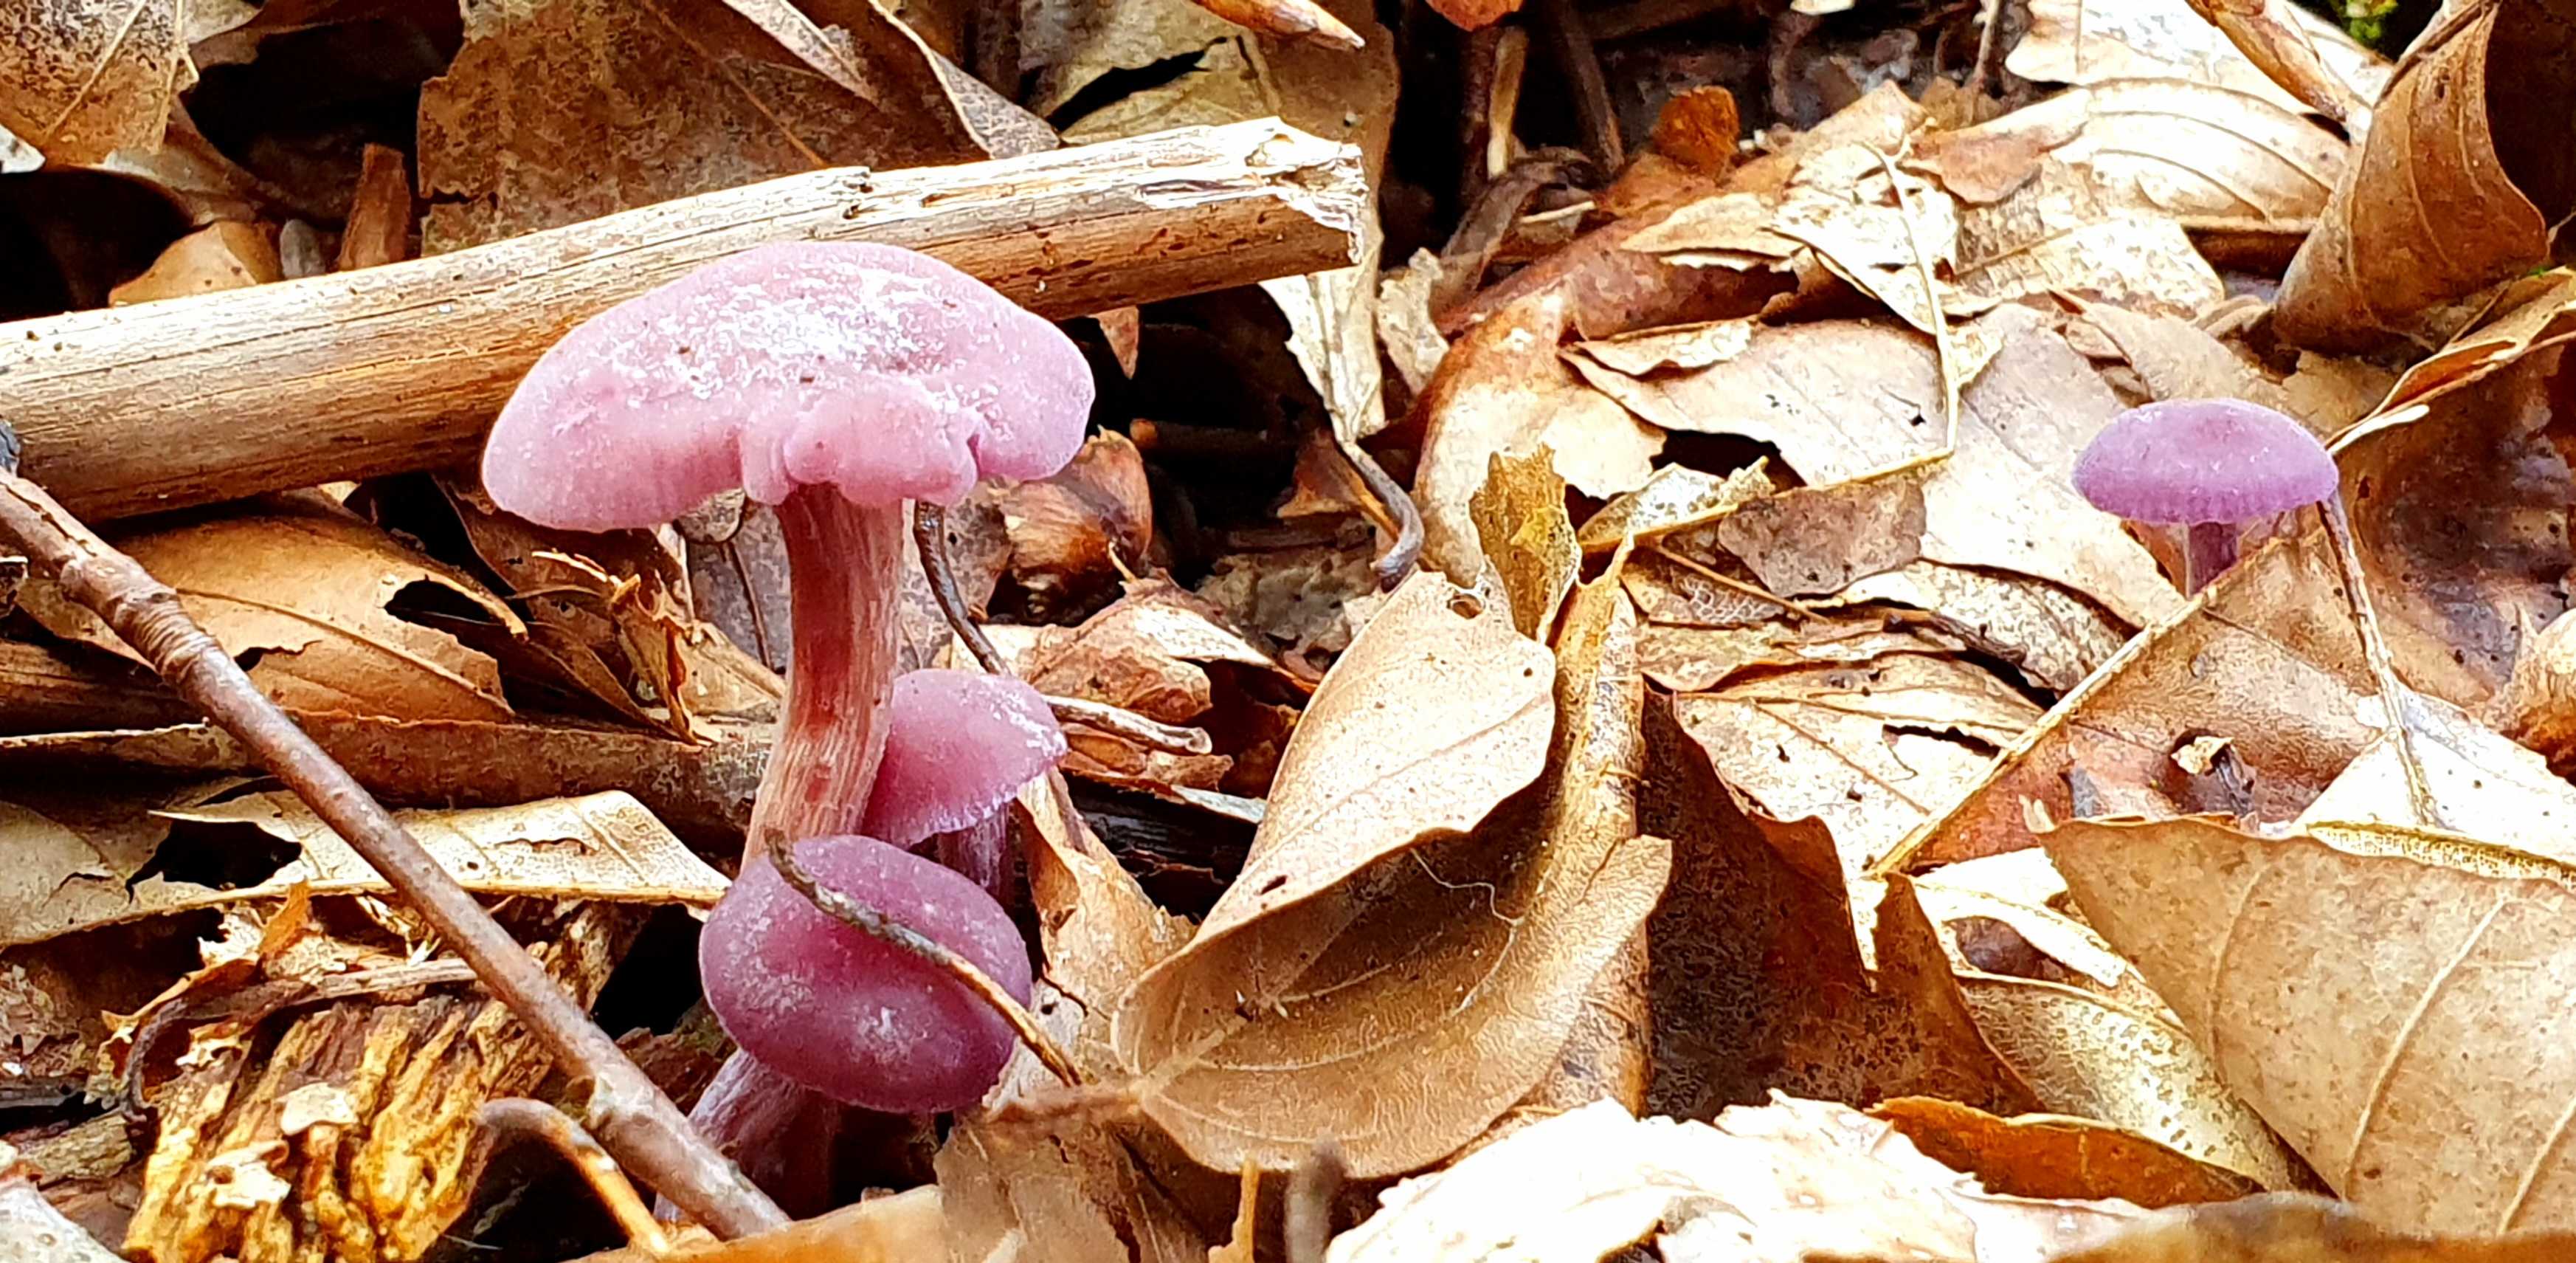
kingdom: Fungi
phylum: Basidiomycota
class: Agaricomycetes
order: Agaricales
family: Hydnangiaceae
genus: Laccaria
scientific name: Laccaria amethystina
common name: violet ametysthat
